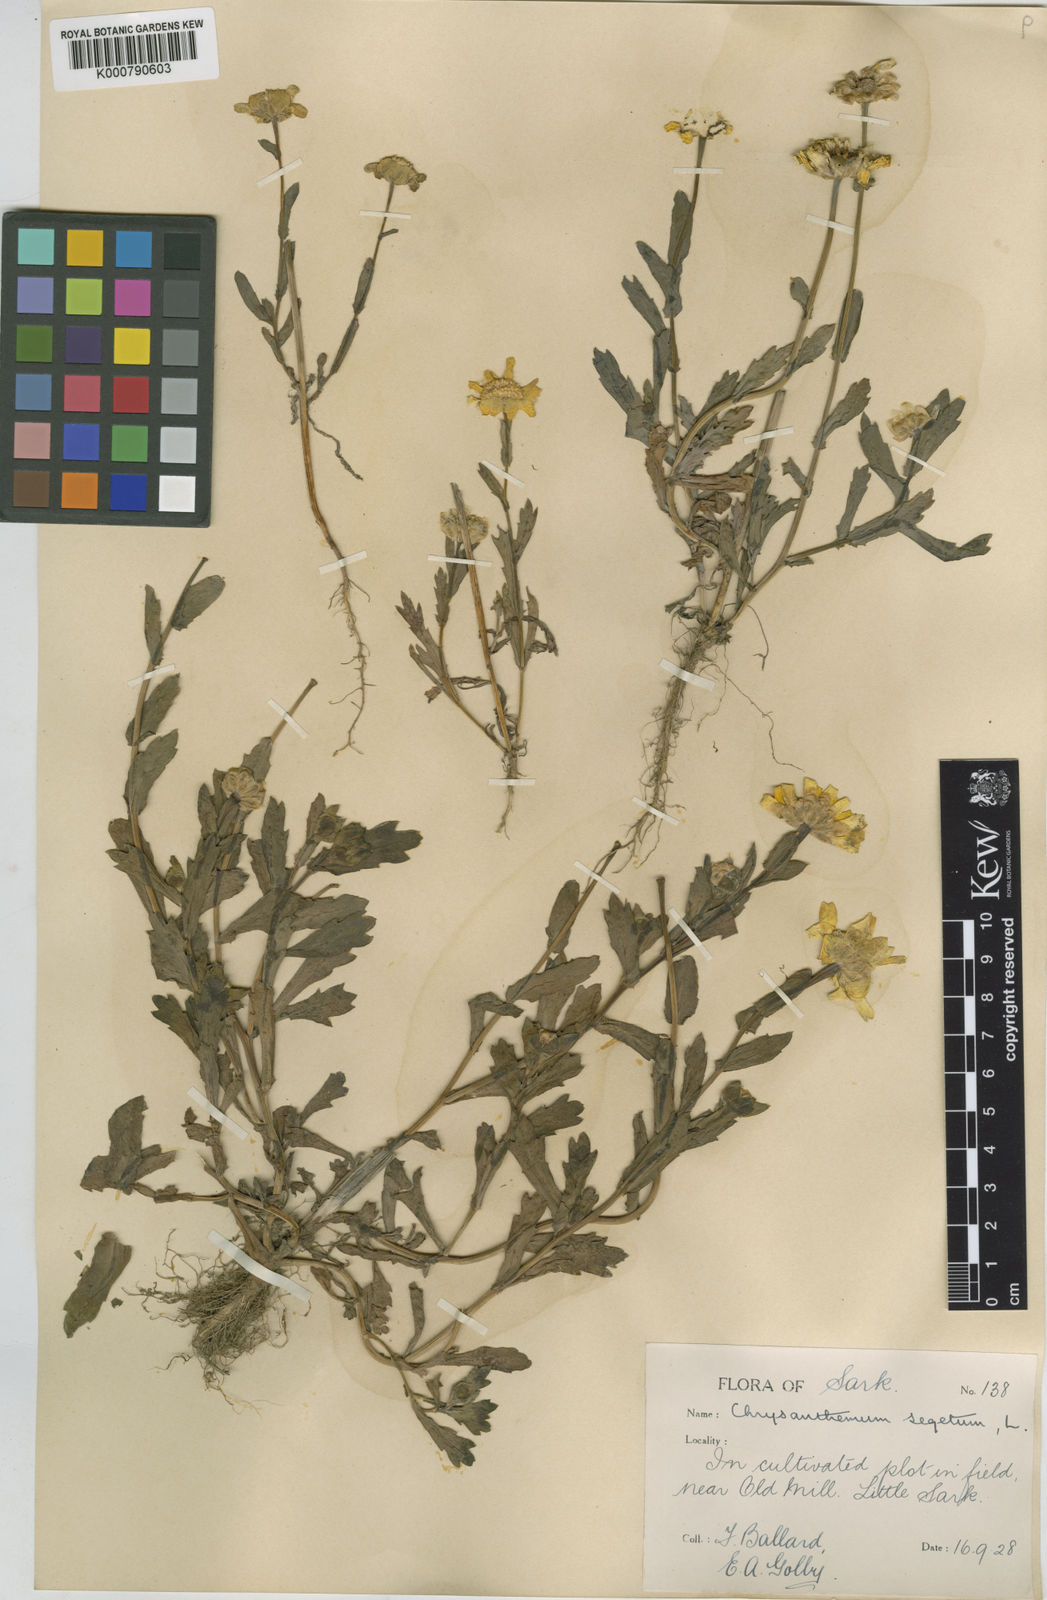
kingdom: Plantae
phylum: Tracheophyta
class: Magnoliopsida
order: Asterales
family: Asteraceae
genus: Glebionis
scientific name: Glebionis
